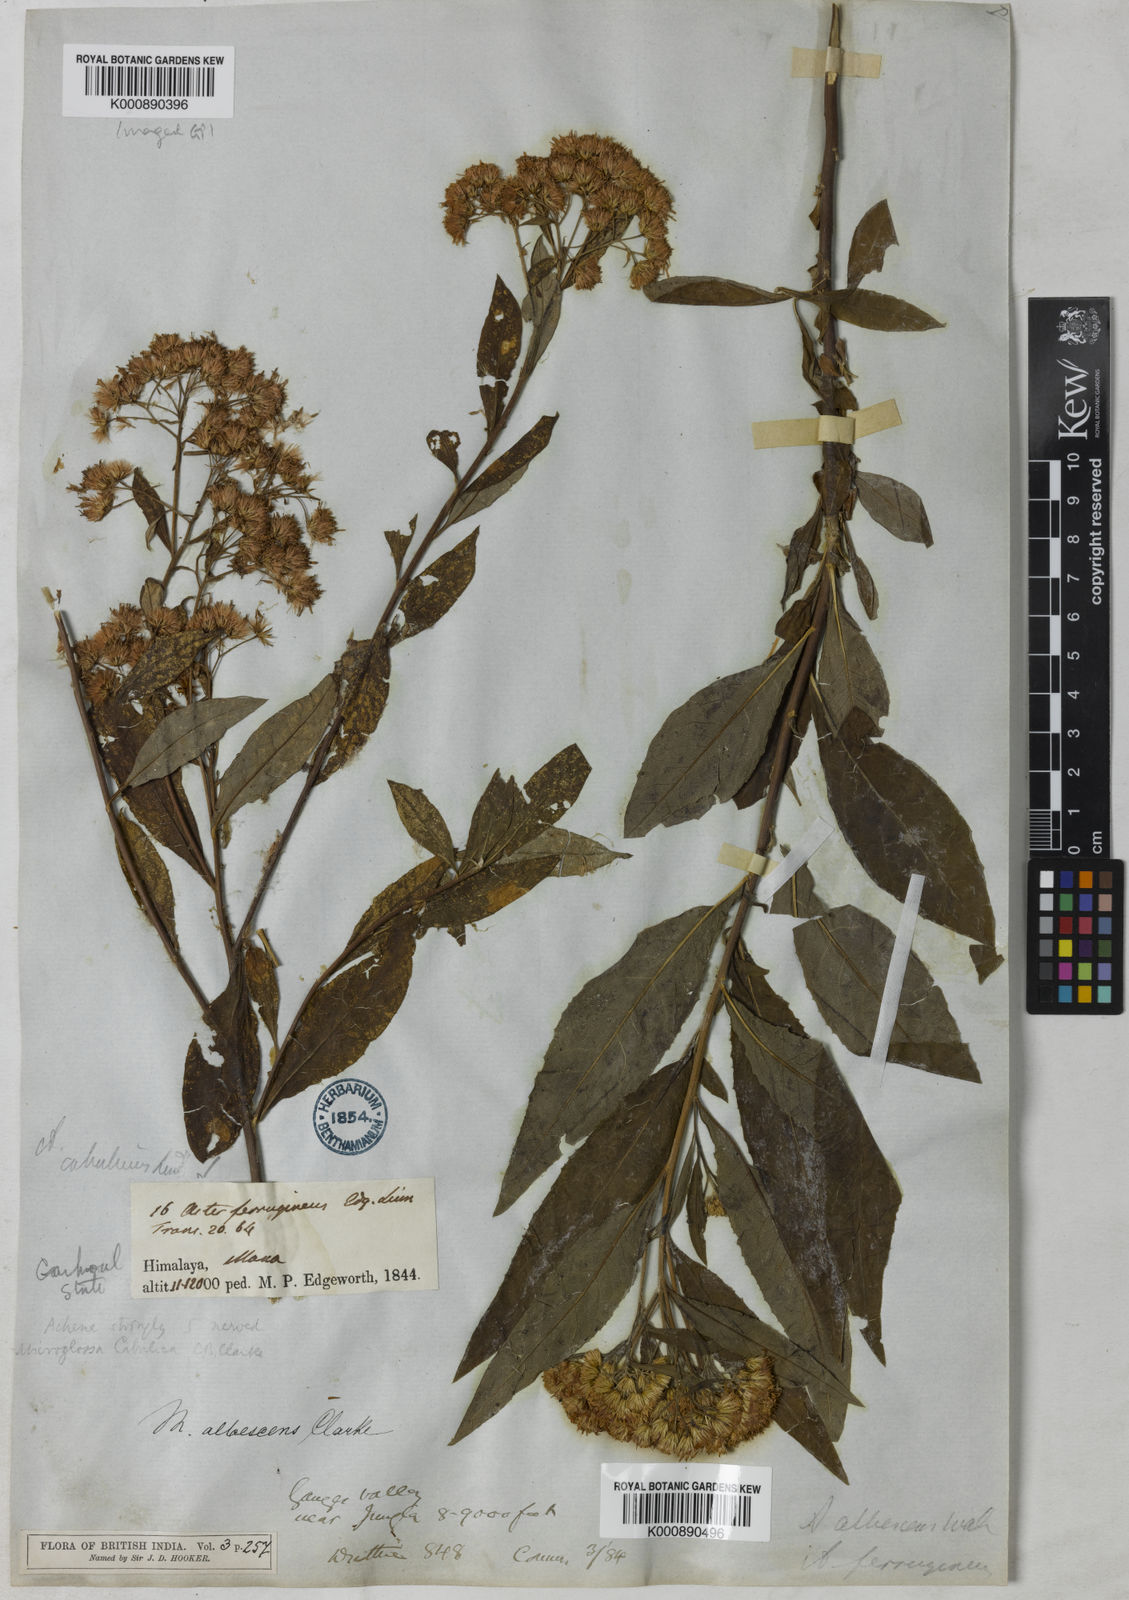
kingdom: Plantae
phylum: Tracheophyta
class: Magnoliopsida
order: Asterales
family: Asteraceae
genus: Sinosidus
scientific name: Sinosidus albescens
